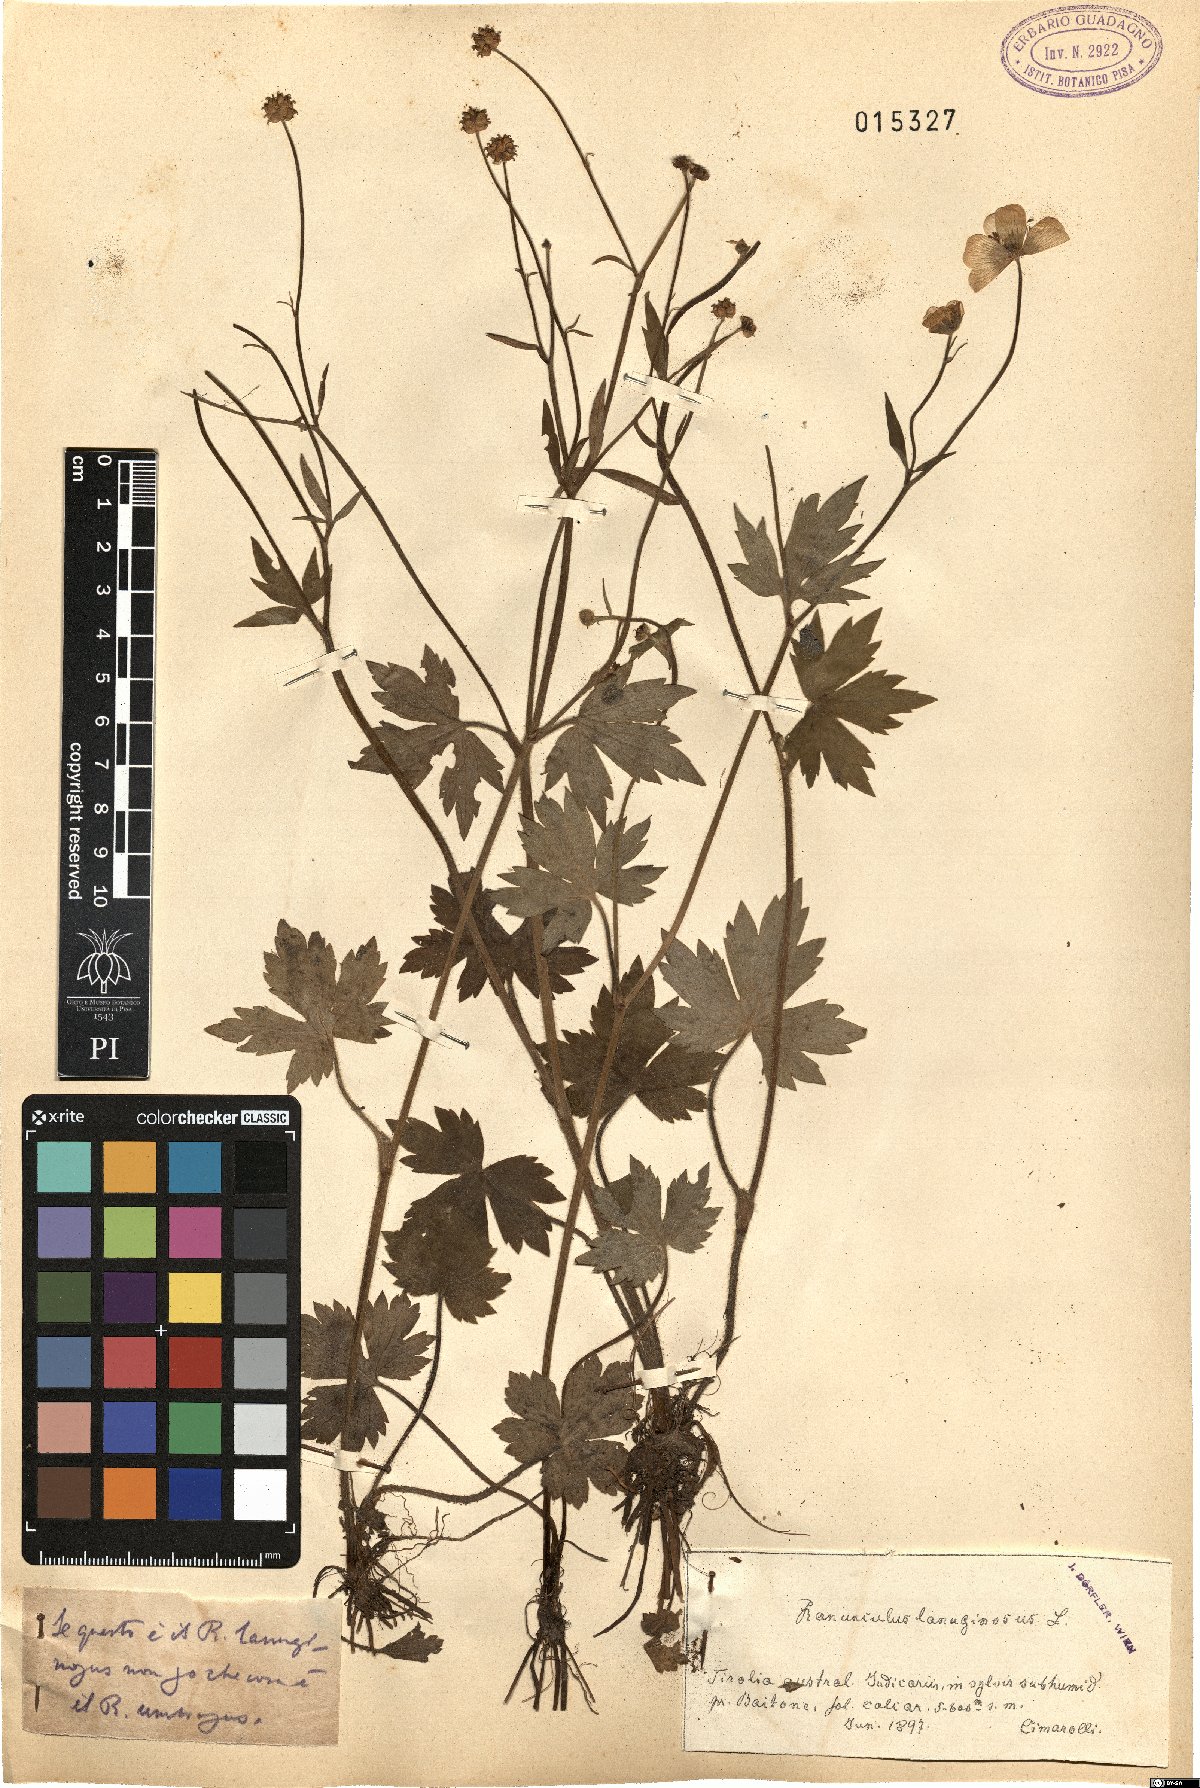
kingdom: Plantae
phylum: Tracheophyta
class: Magnoliopsida
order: Ranunculales
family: Ranunculaceae
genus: Ranunculus
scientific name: Ranunculus lanuginosus
